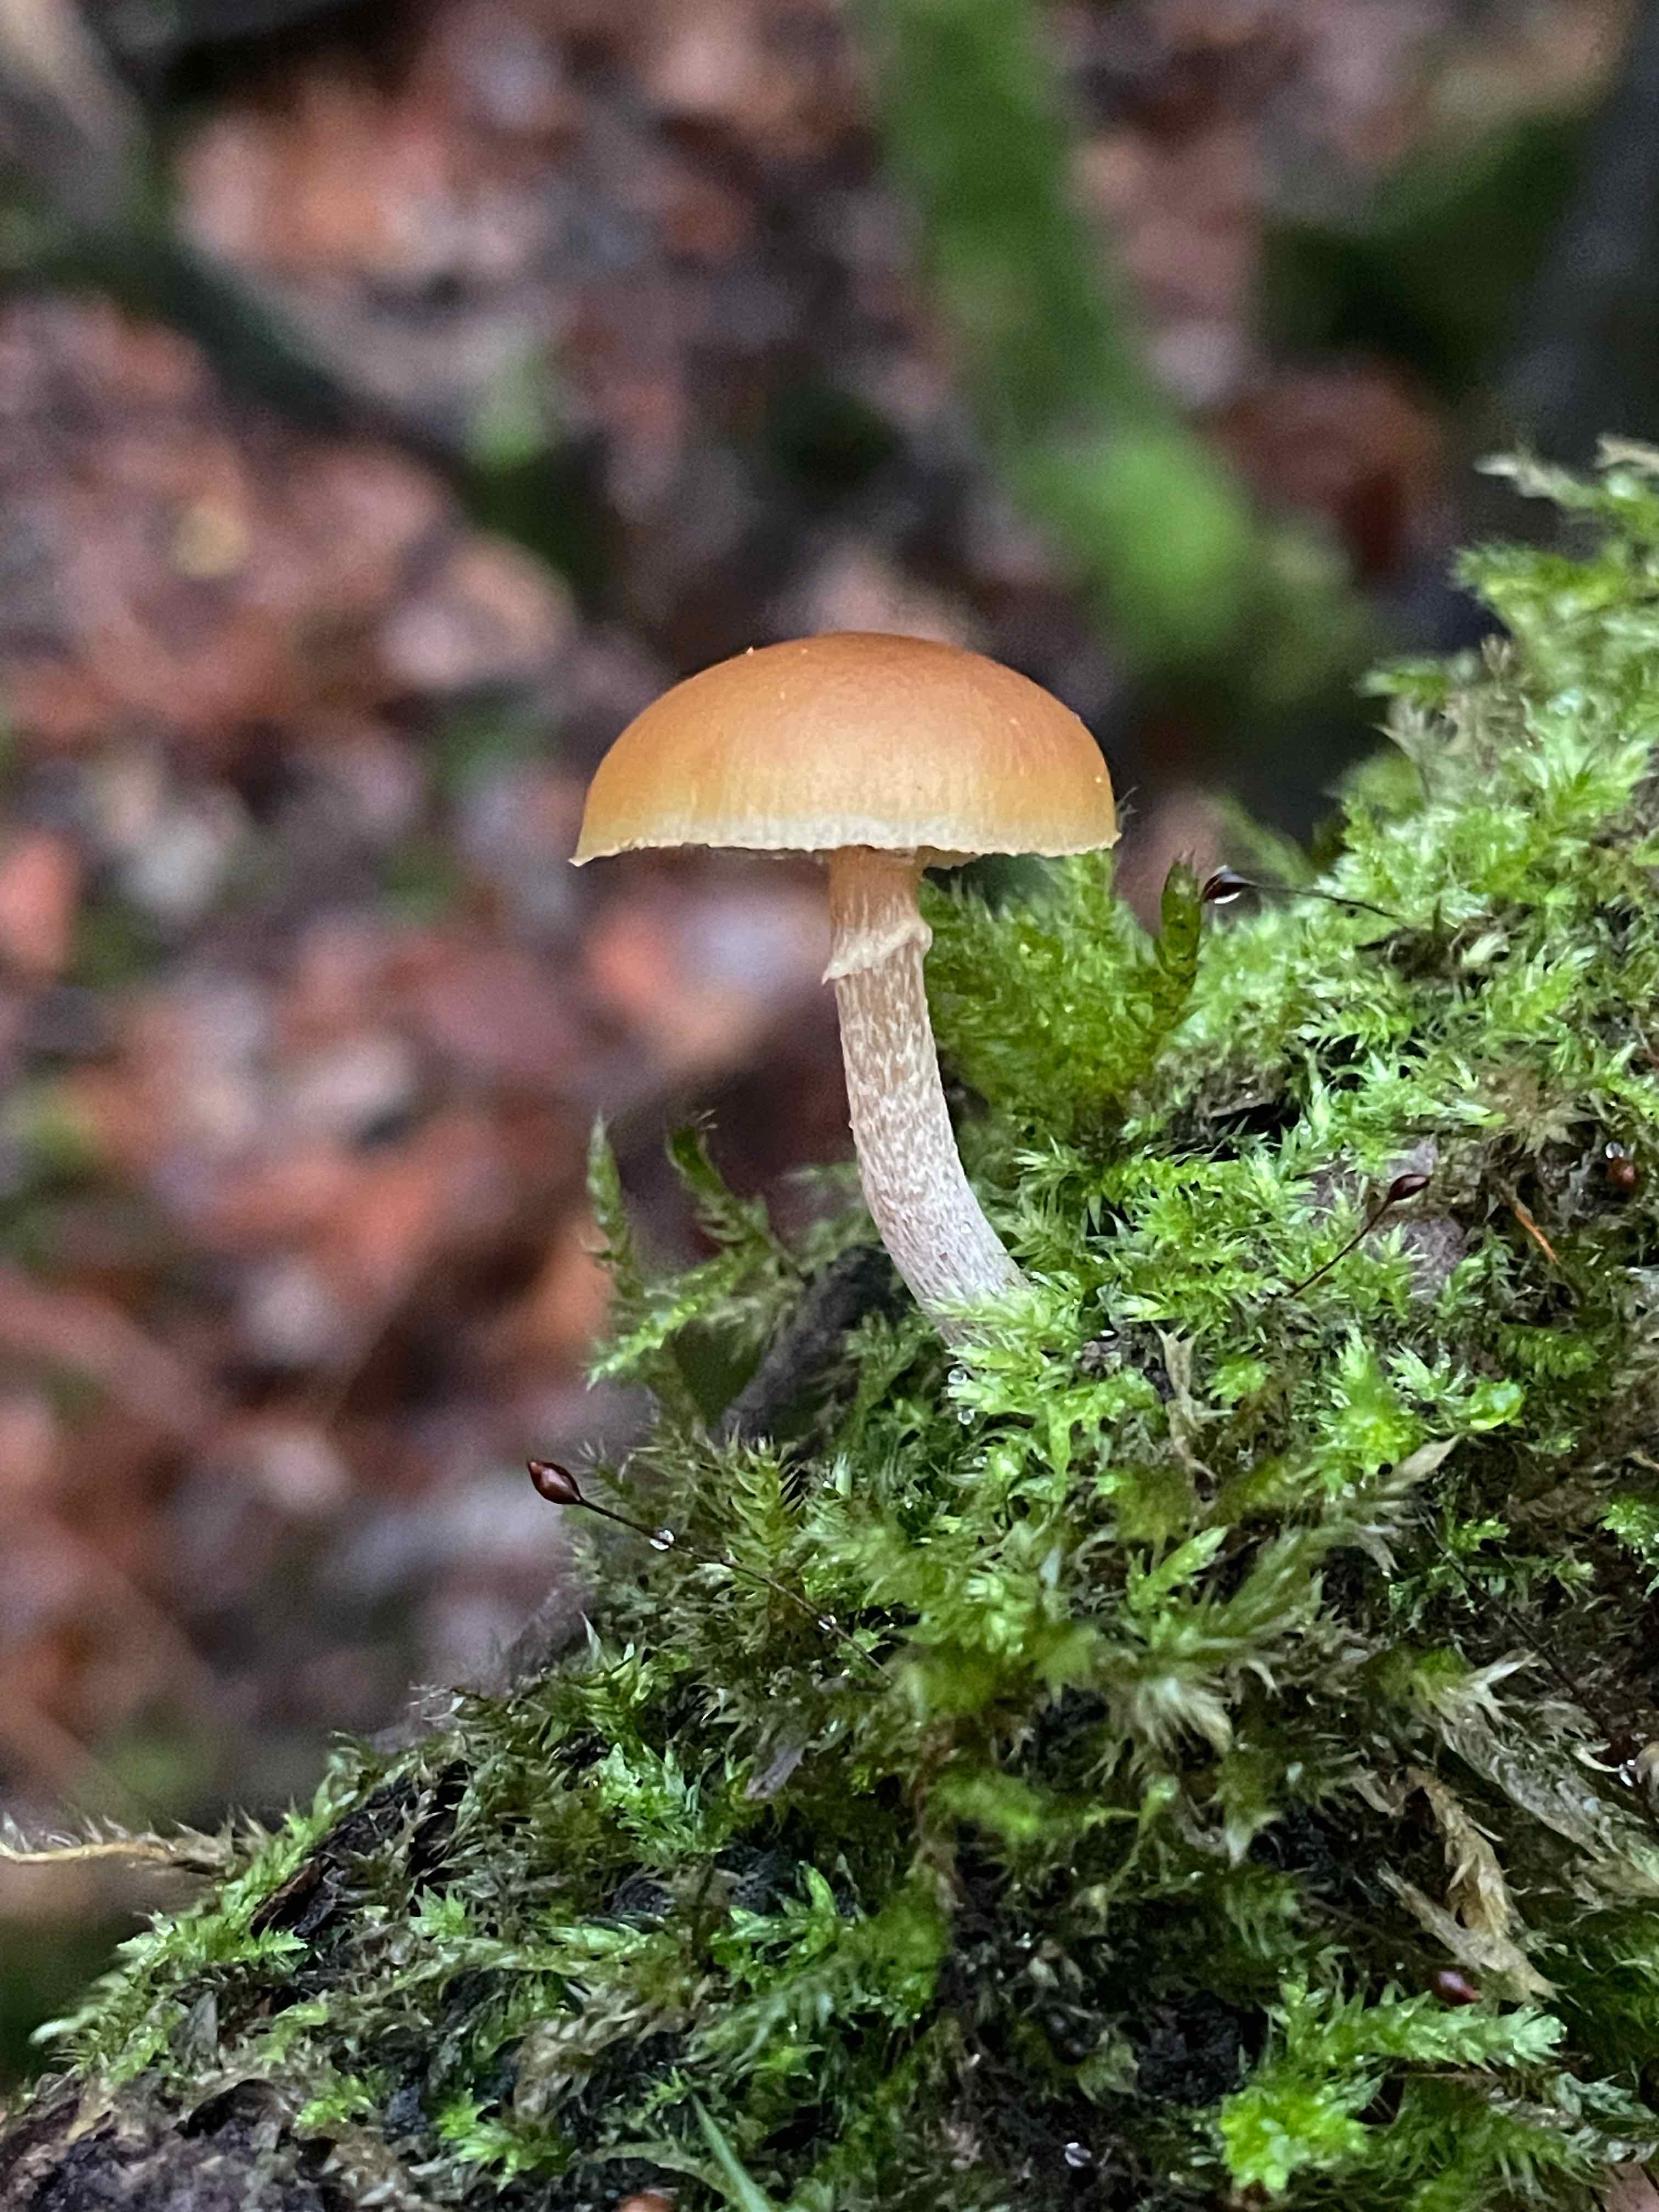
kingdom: Fungi
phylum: Basidiomycota
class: Agaricomycetes
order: Agaricales
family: Hymenogastraceae
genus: Galerina
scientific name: Galerina marginata
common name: randbæltet hjelmhat
